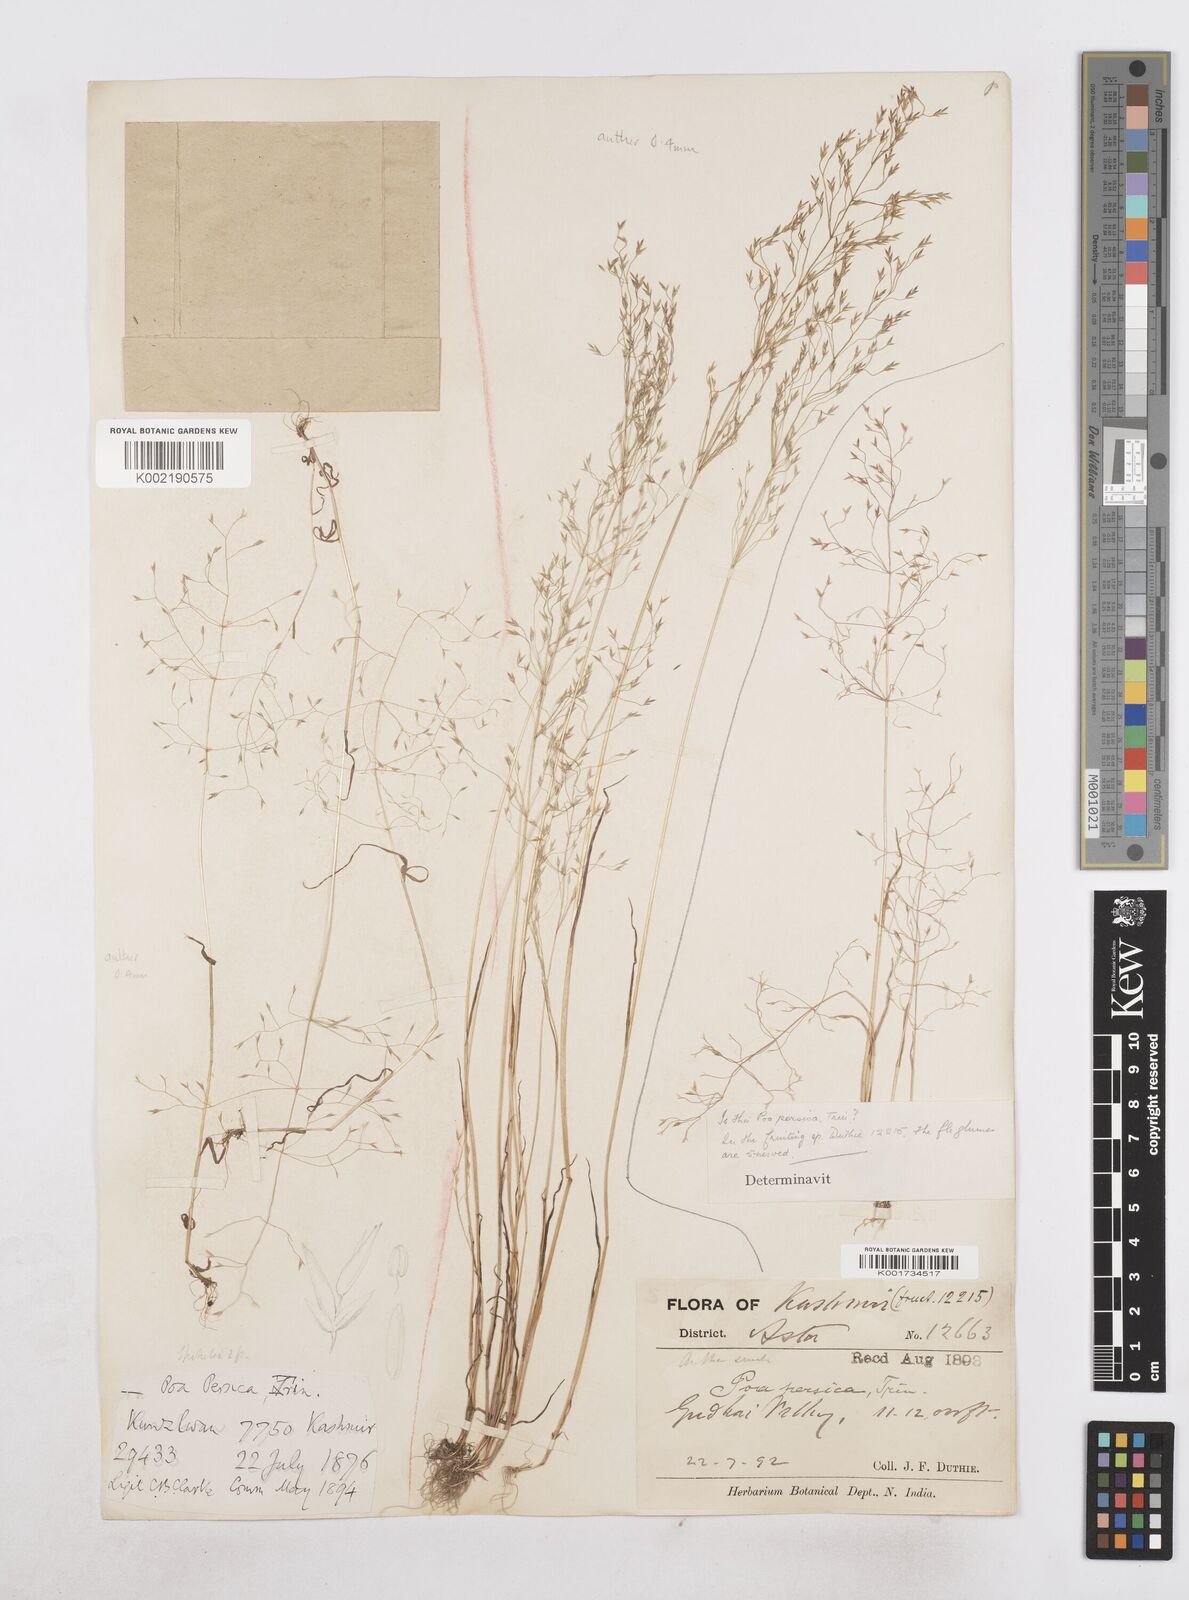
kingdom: Plantae
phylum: Tracheophyta
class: Liliopsida
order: Poales
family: Poaceae
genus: Poa
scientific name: Poa diaphora
